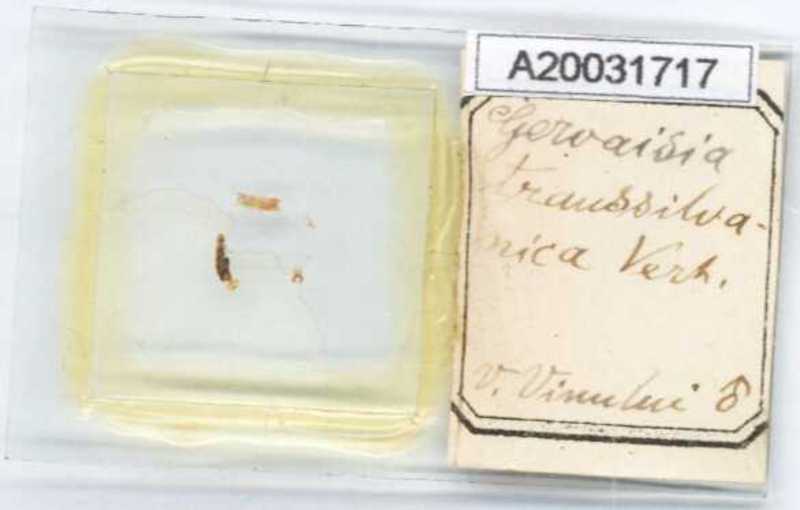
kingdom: Animalia
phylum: Arthropoda
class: Diplopoda
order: Glomerida
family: Glomeridae
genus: Trachysphaera
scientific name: Trachysphaera schmidtii
